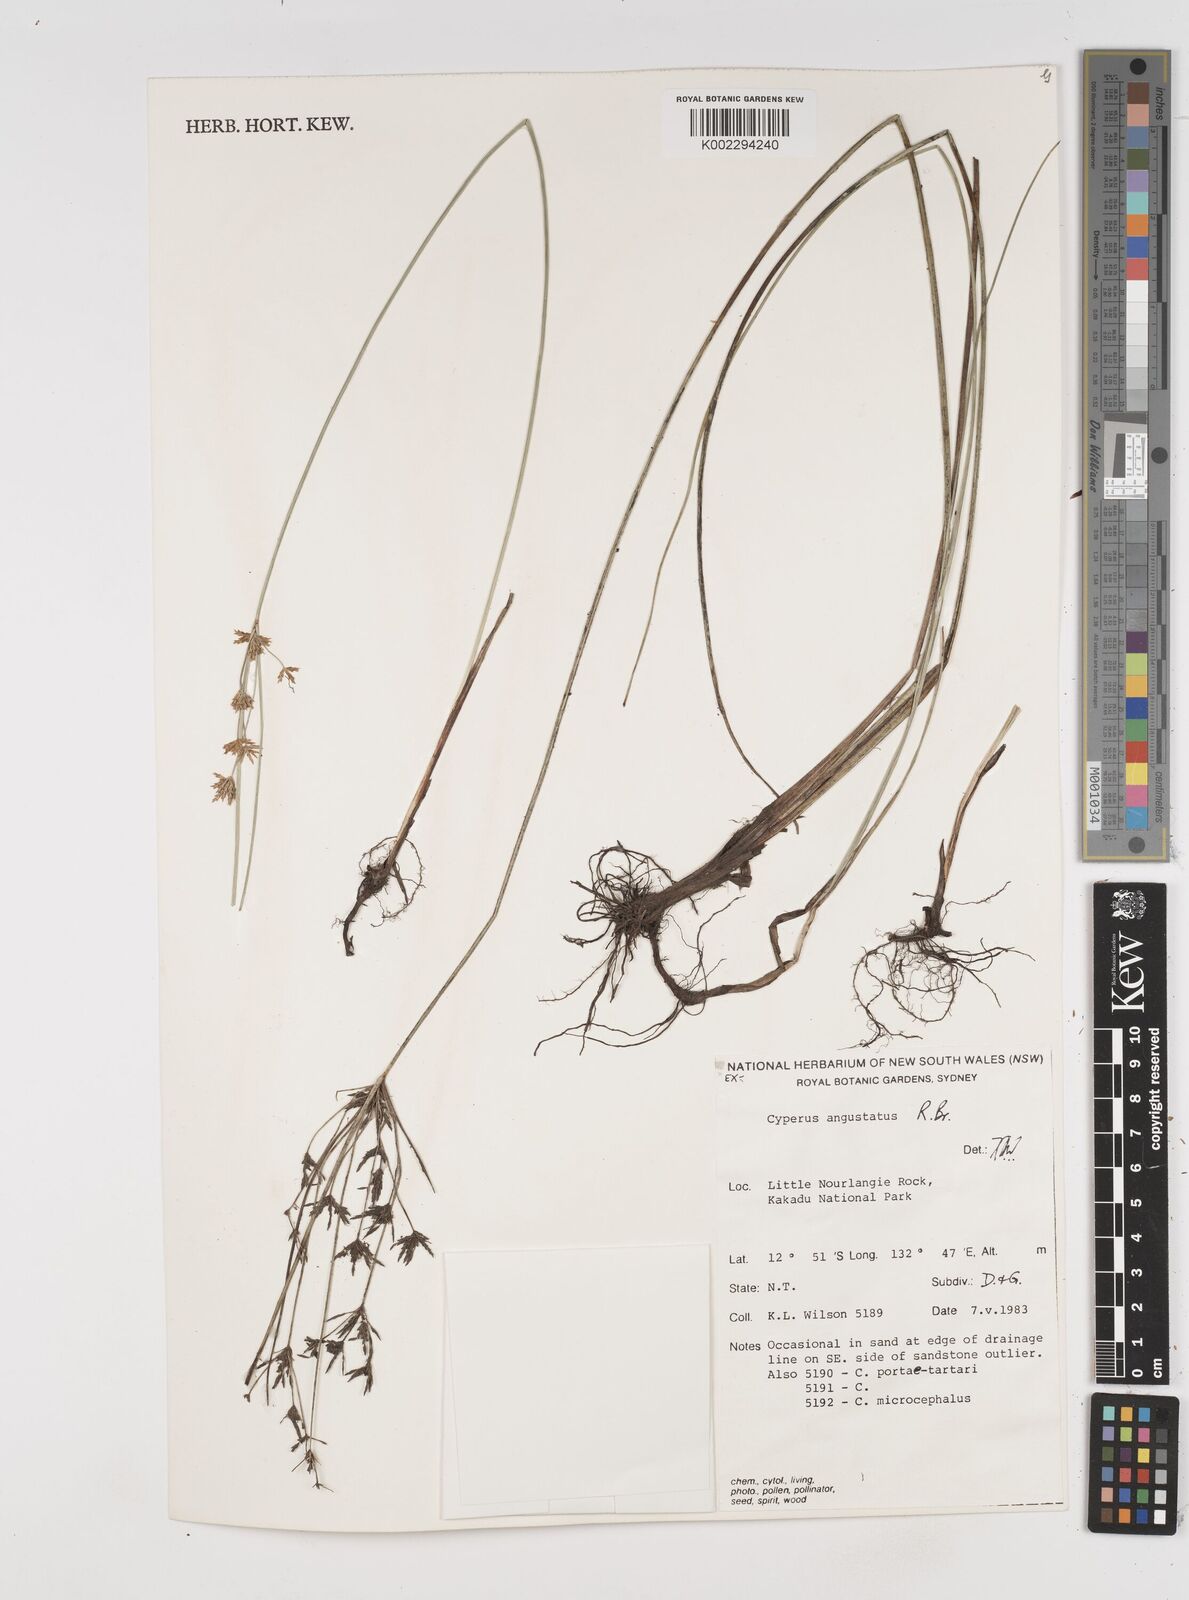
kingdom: Plantae
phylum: Tracheophyta
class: Liliopsida
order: Poales
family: Cyperaceae
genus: Cyperus
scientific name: Cyperus angustatus
